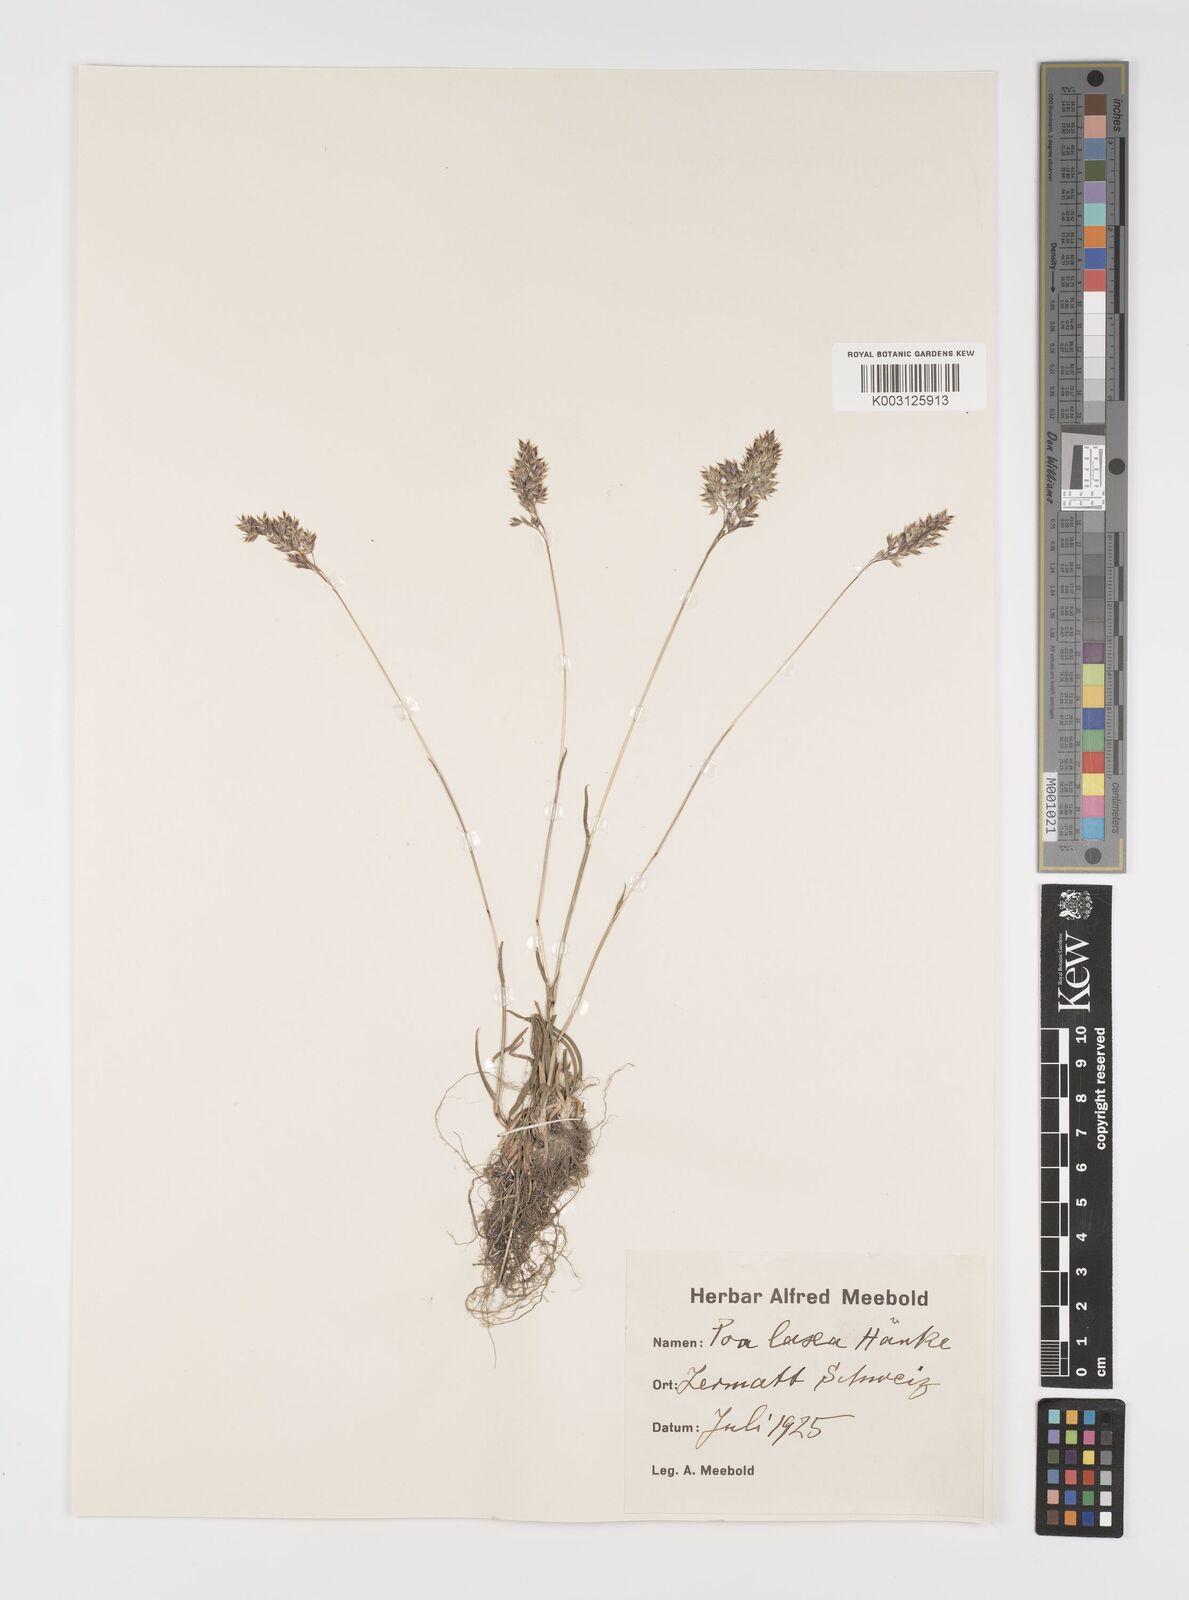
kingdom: Plantae
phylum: Tracheophyta
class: Liliopsida
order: Poales
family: Poaceae
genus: Poa
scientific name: Poa laxa
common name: Lax bluegrass
